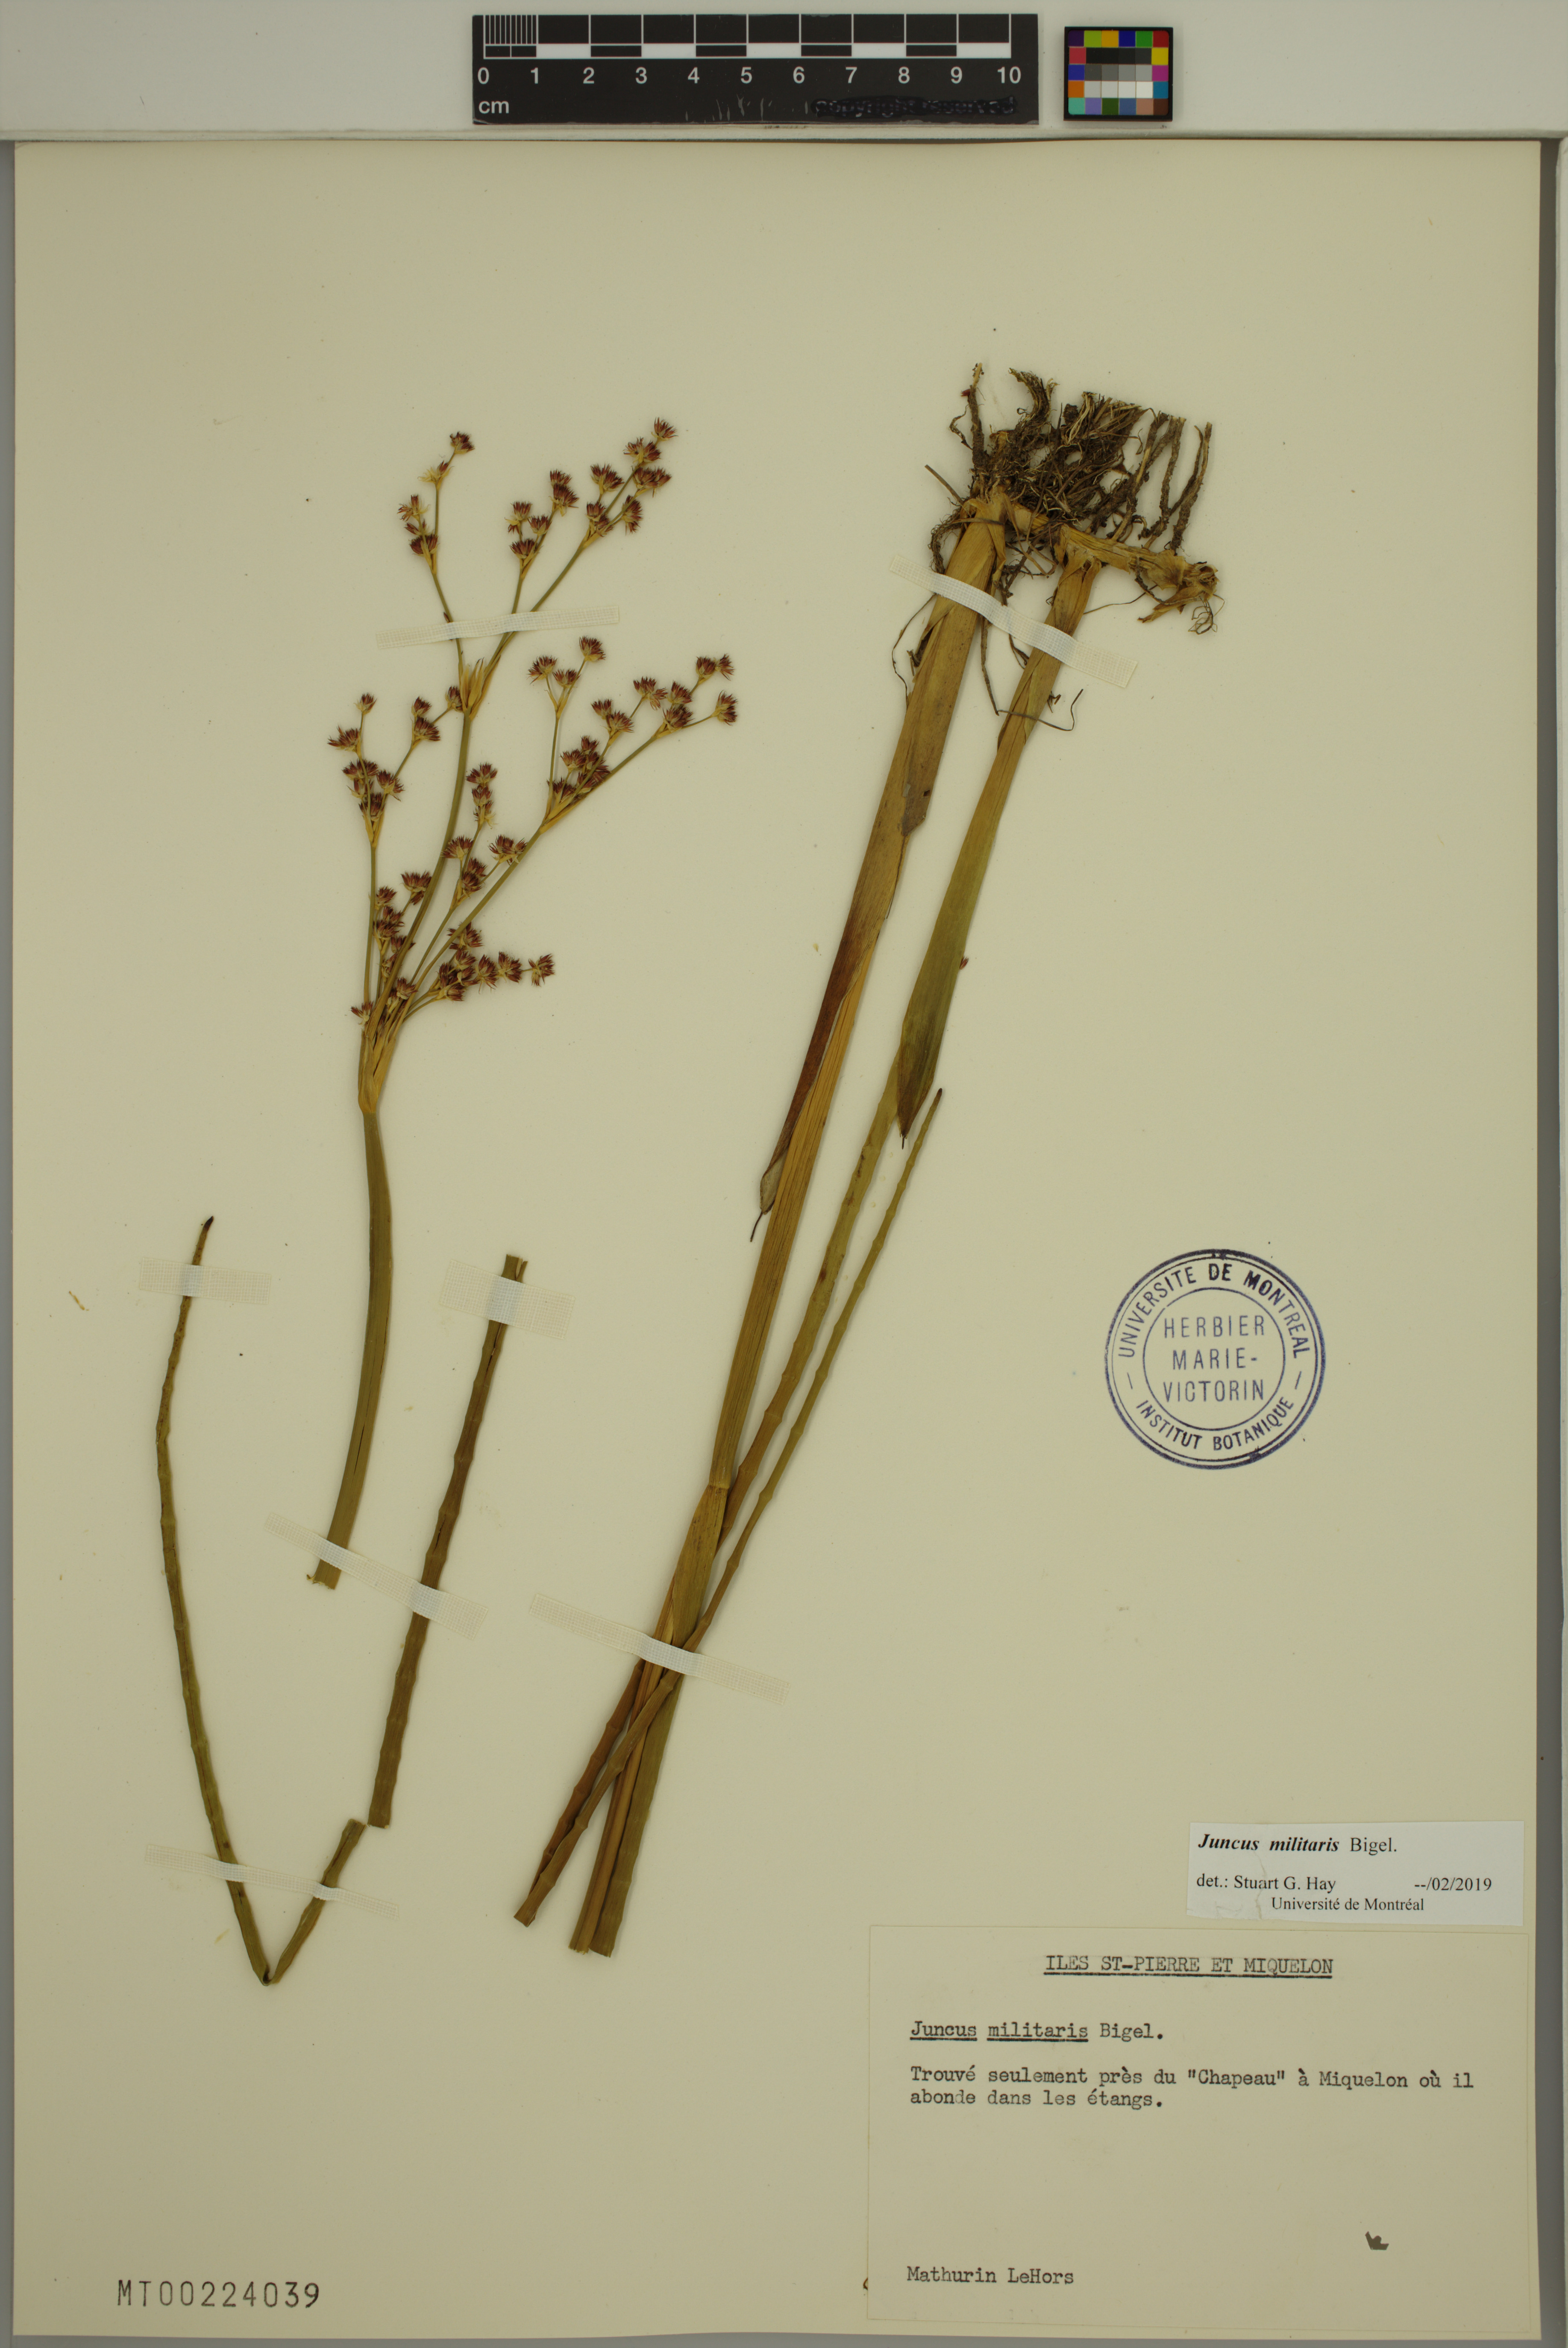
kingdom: Plantae
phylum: Tracheophyta
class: Liliopsida
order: Poales
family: Juncaceae
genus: Juncus
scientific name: Juncus militaris
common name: Bayonet rush
